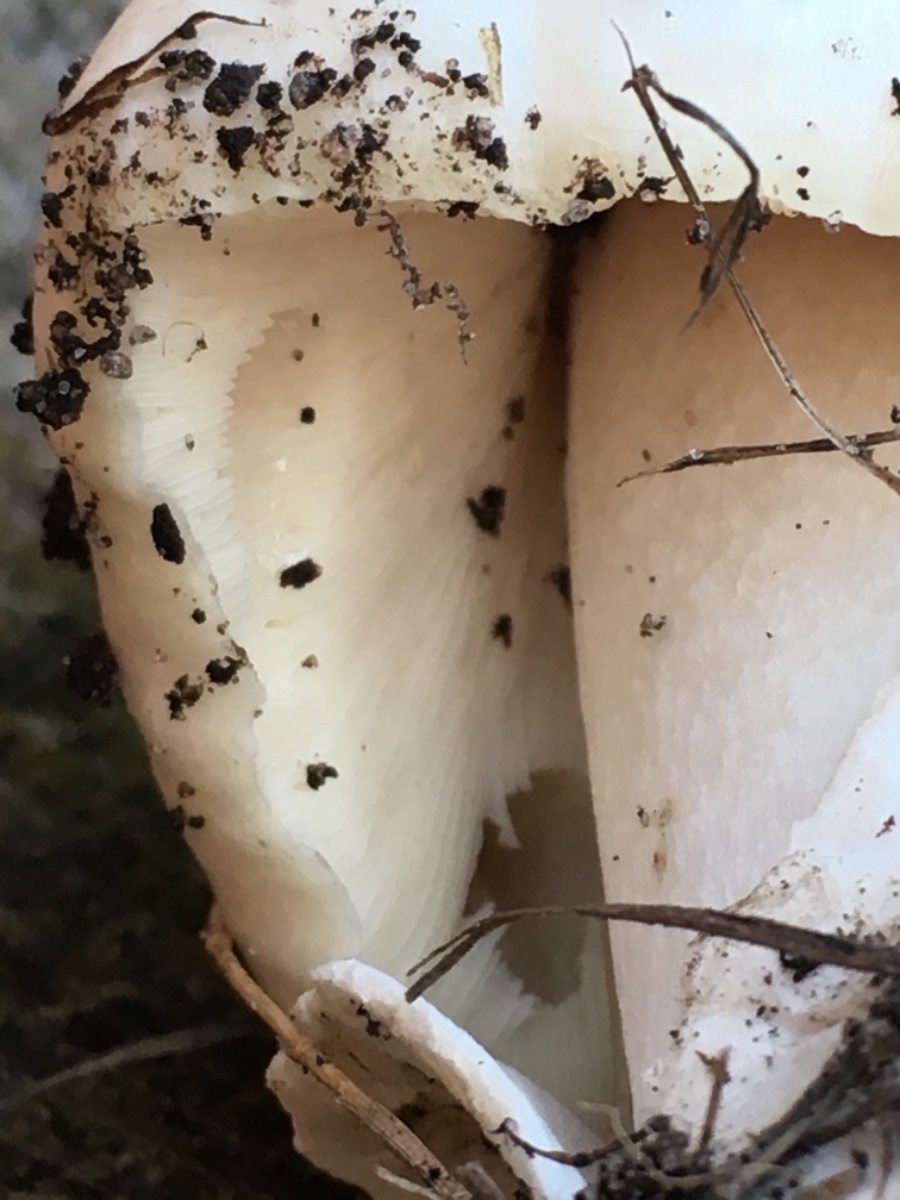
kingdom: Fungi
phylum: Basidiomycota
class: Agaricomycetes
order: Agaricales
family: Pluteaceae
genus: Volvopluteus
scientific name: Volvopluteus gloiocephalus
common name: høj posesvamp
